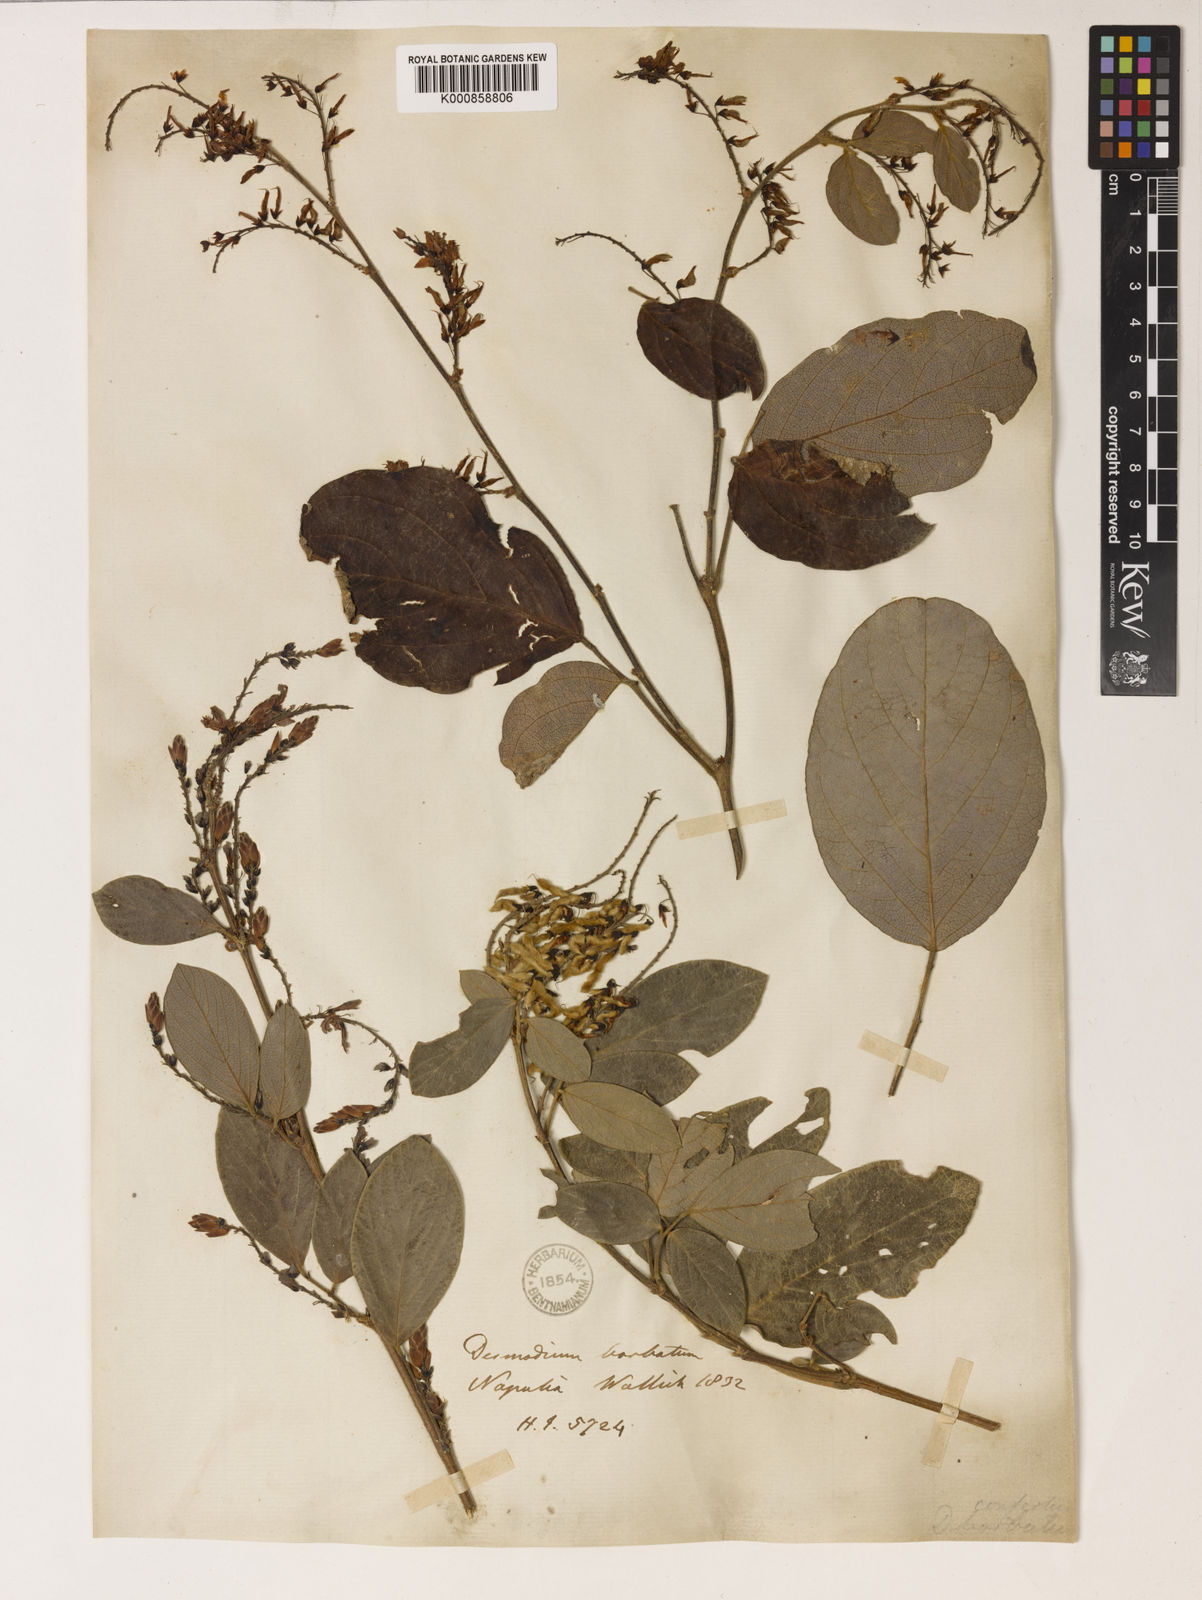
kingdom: Plantae
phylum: Tracheophyta
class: Magnoliopsida
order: Fabales
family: Fabaceae
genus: Ototropis
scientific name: Ototropis conferta
